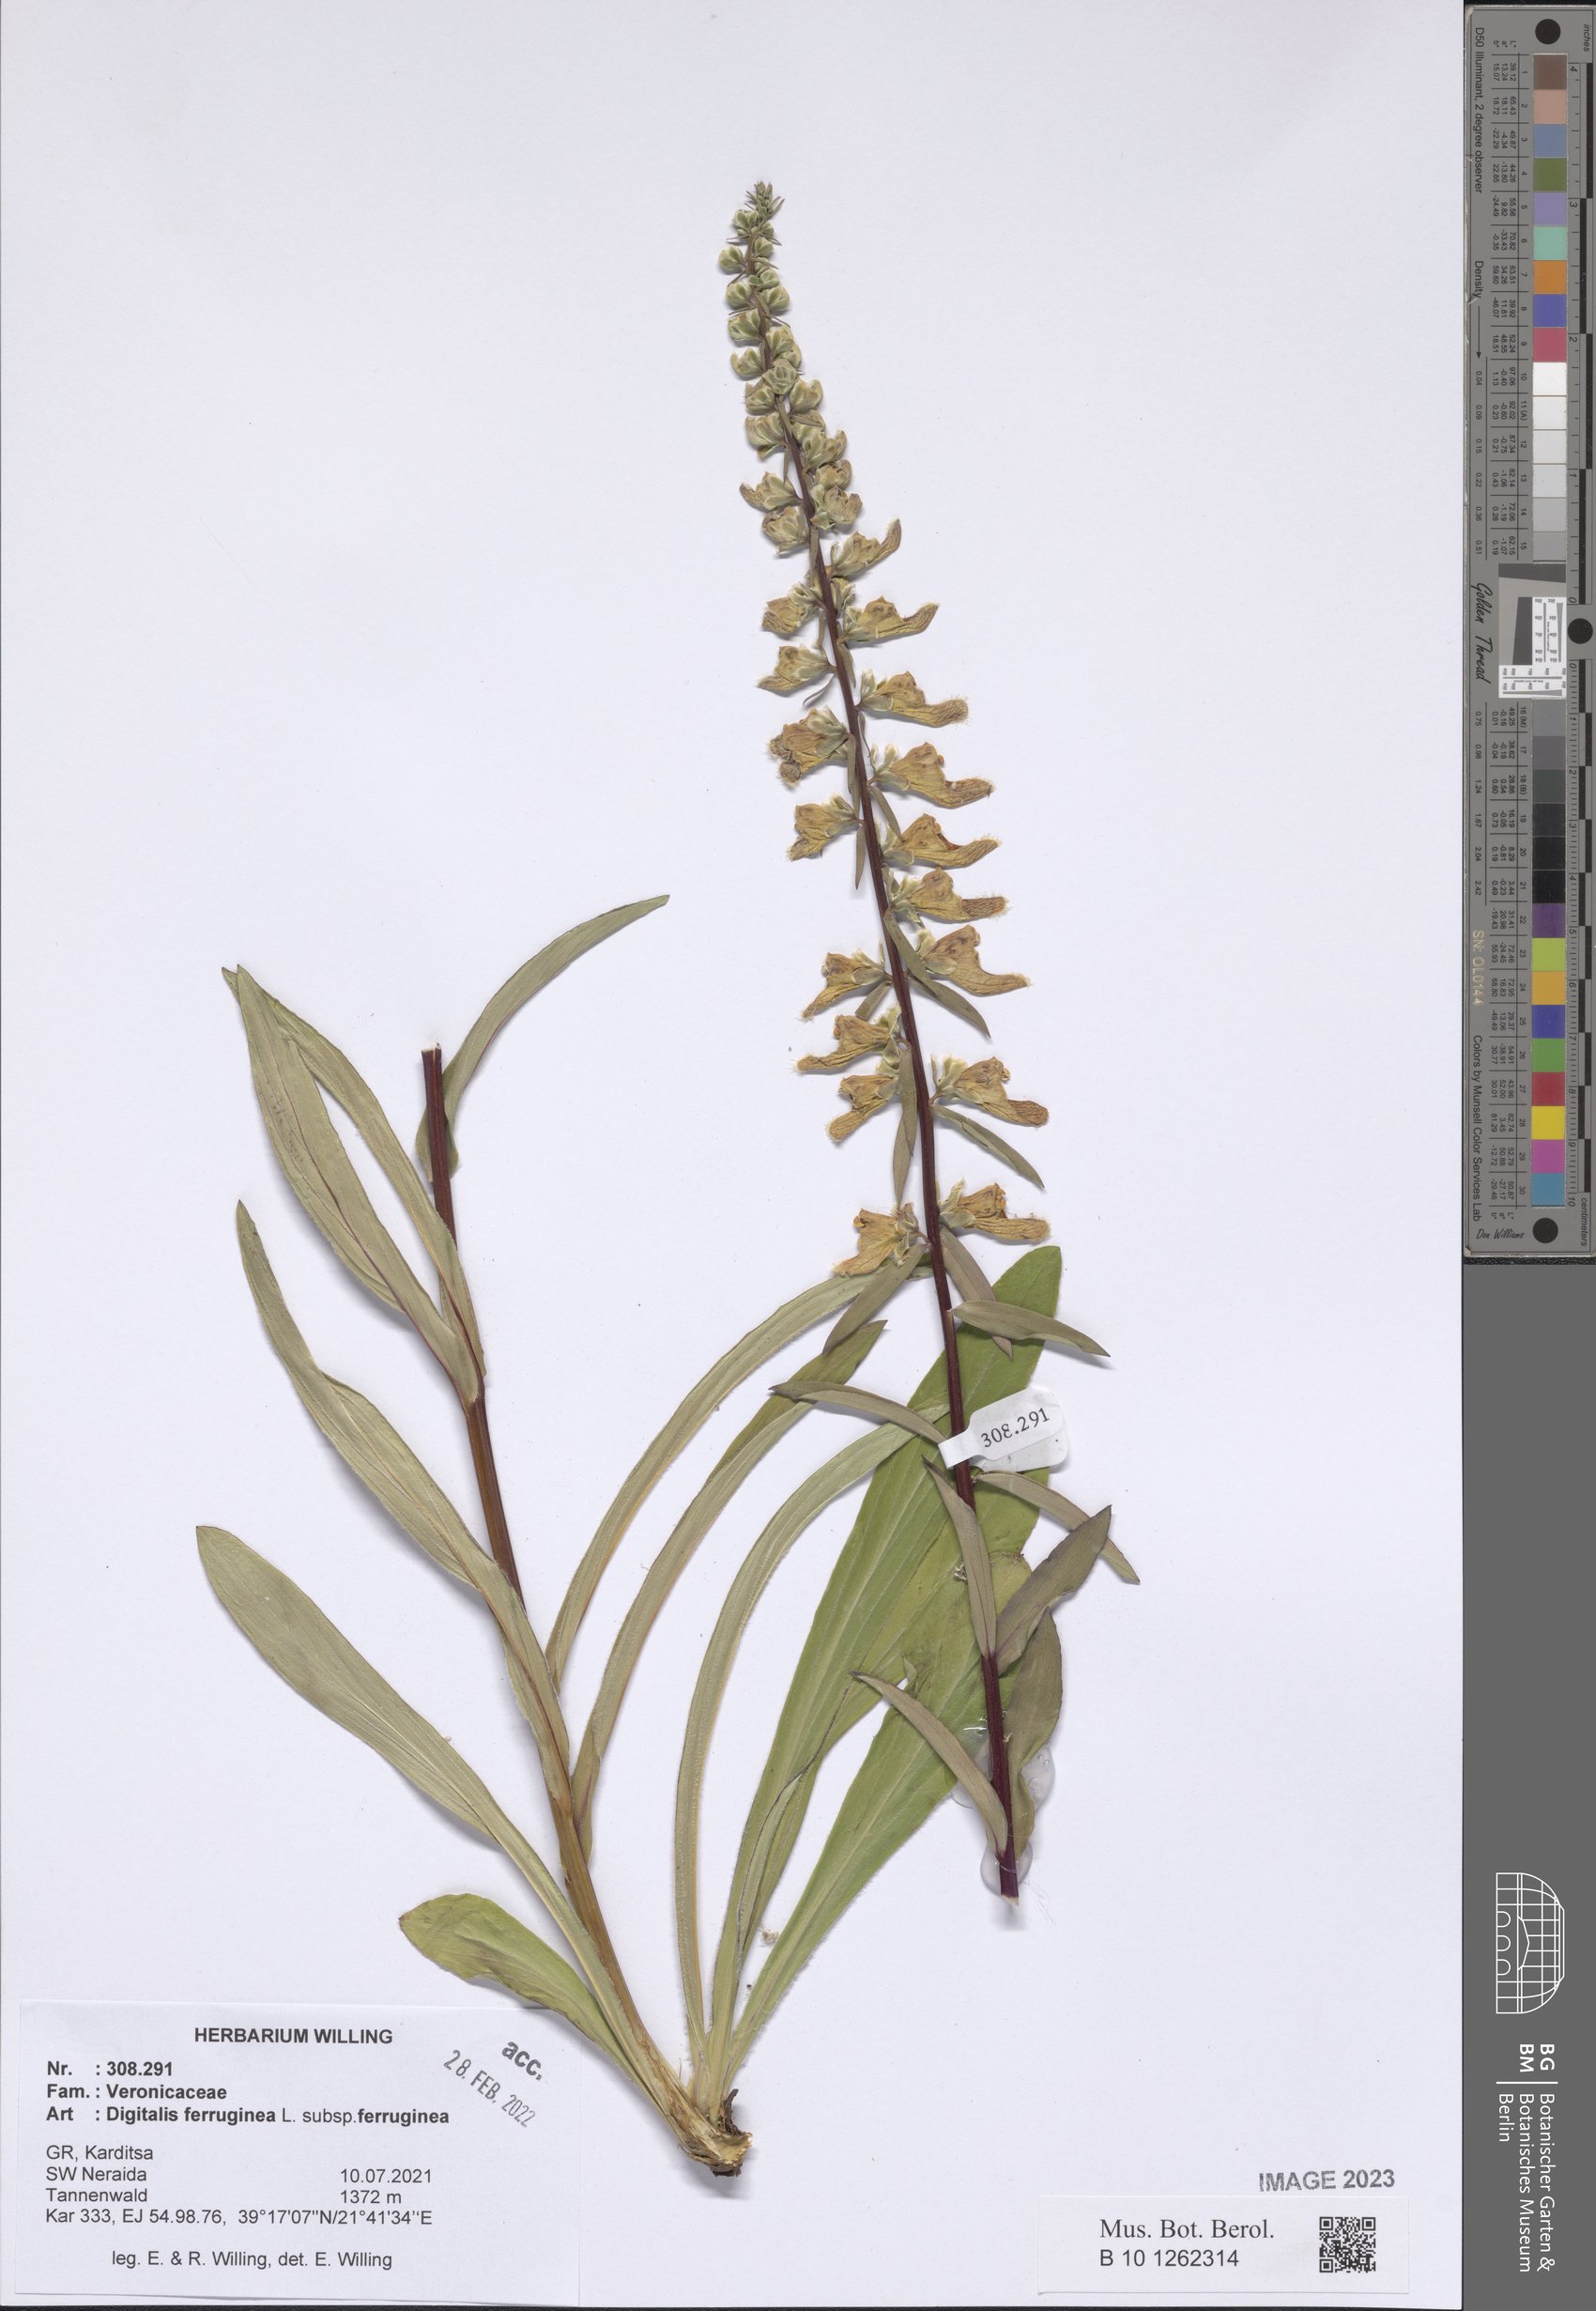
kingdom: Plantae
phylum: Tracheophyta
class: Magnoliopsida
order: Lamiales
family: Plantaginaceae
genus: Digitalis
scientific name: Digitalis ferruginea
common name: Rusty foxglove
